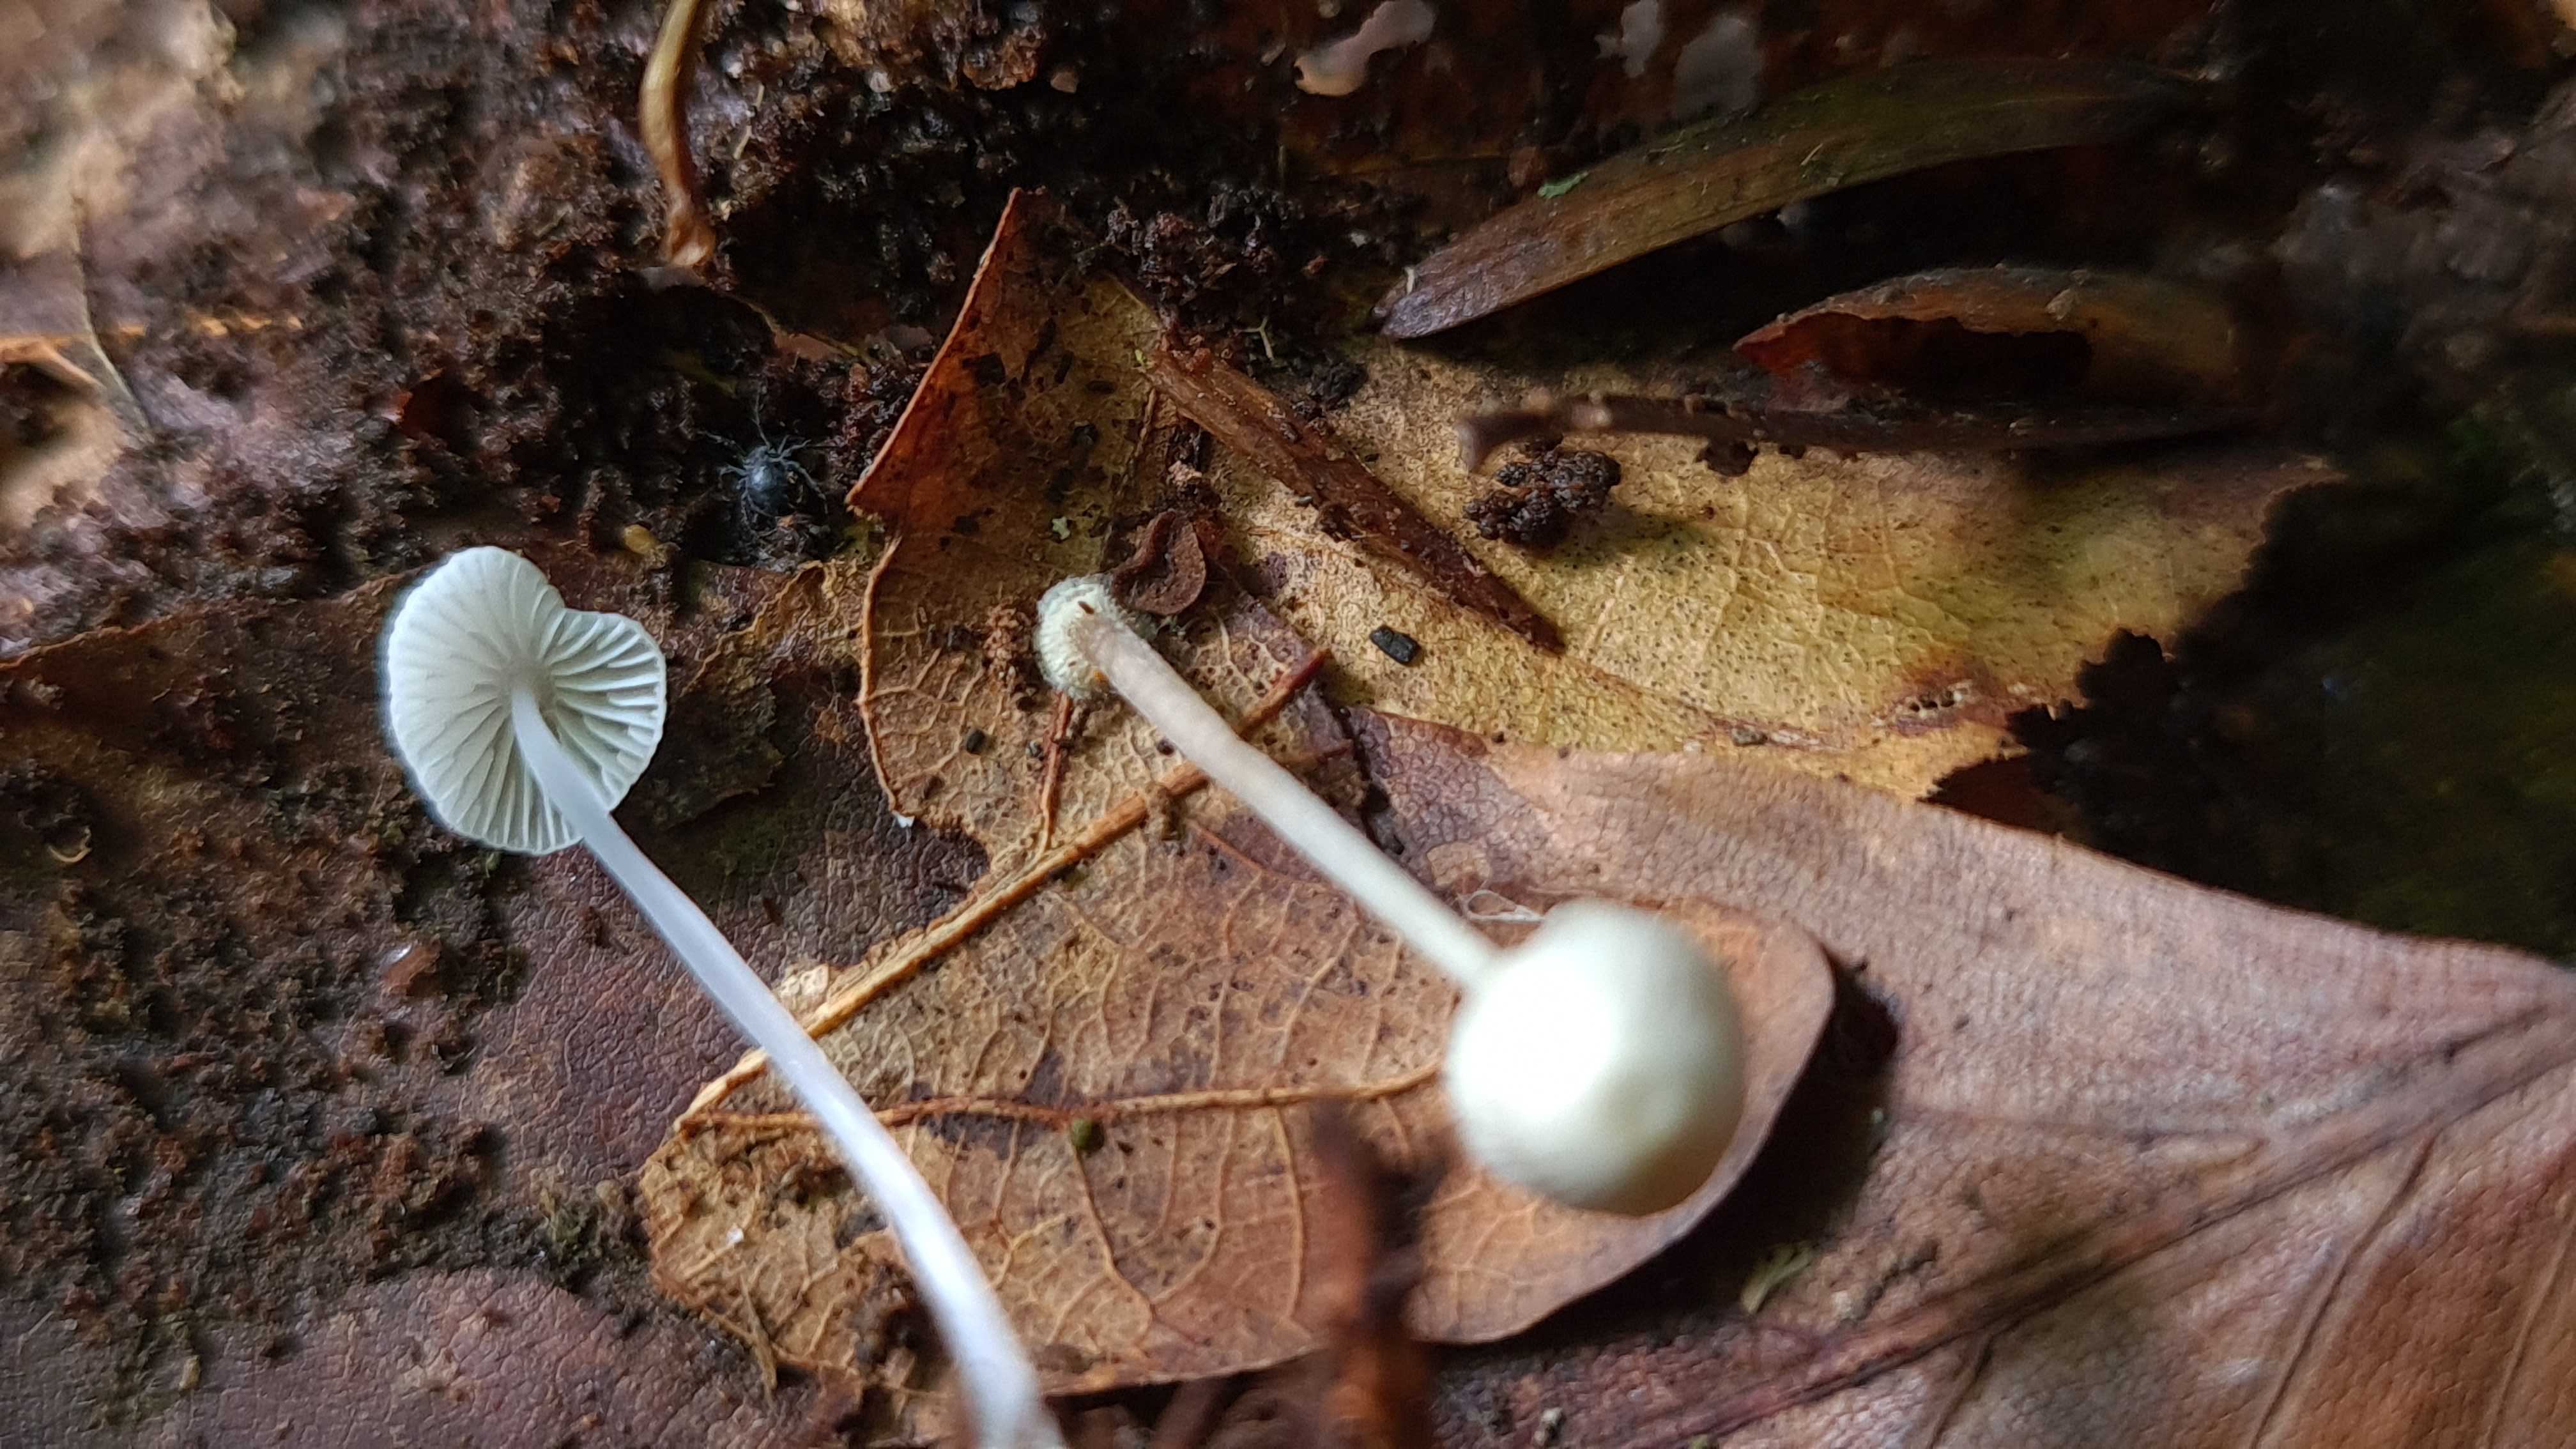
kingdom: Fungi
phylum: Basidiomycota
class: Agaricomycetes
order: Agaricales
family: Mycenaceae
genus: Mycena
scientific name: Mycena stylobates
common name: fureskivet huesvamp
